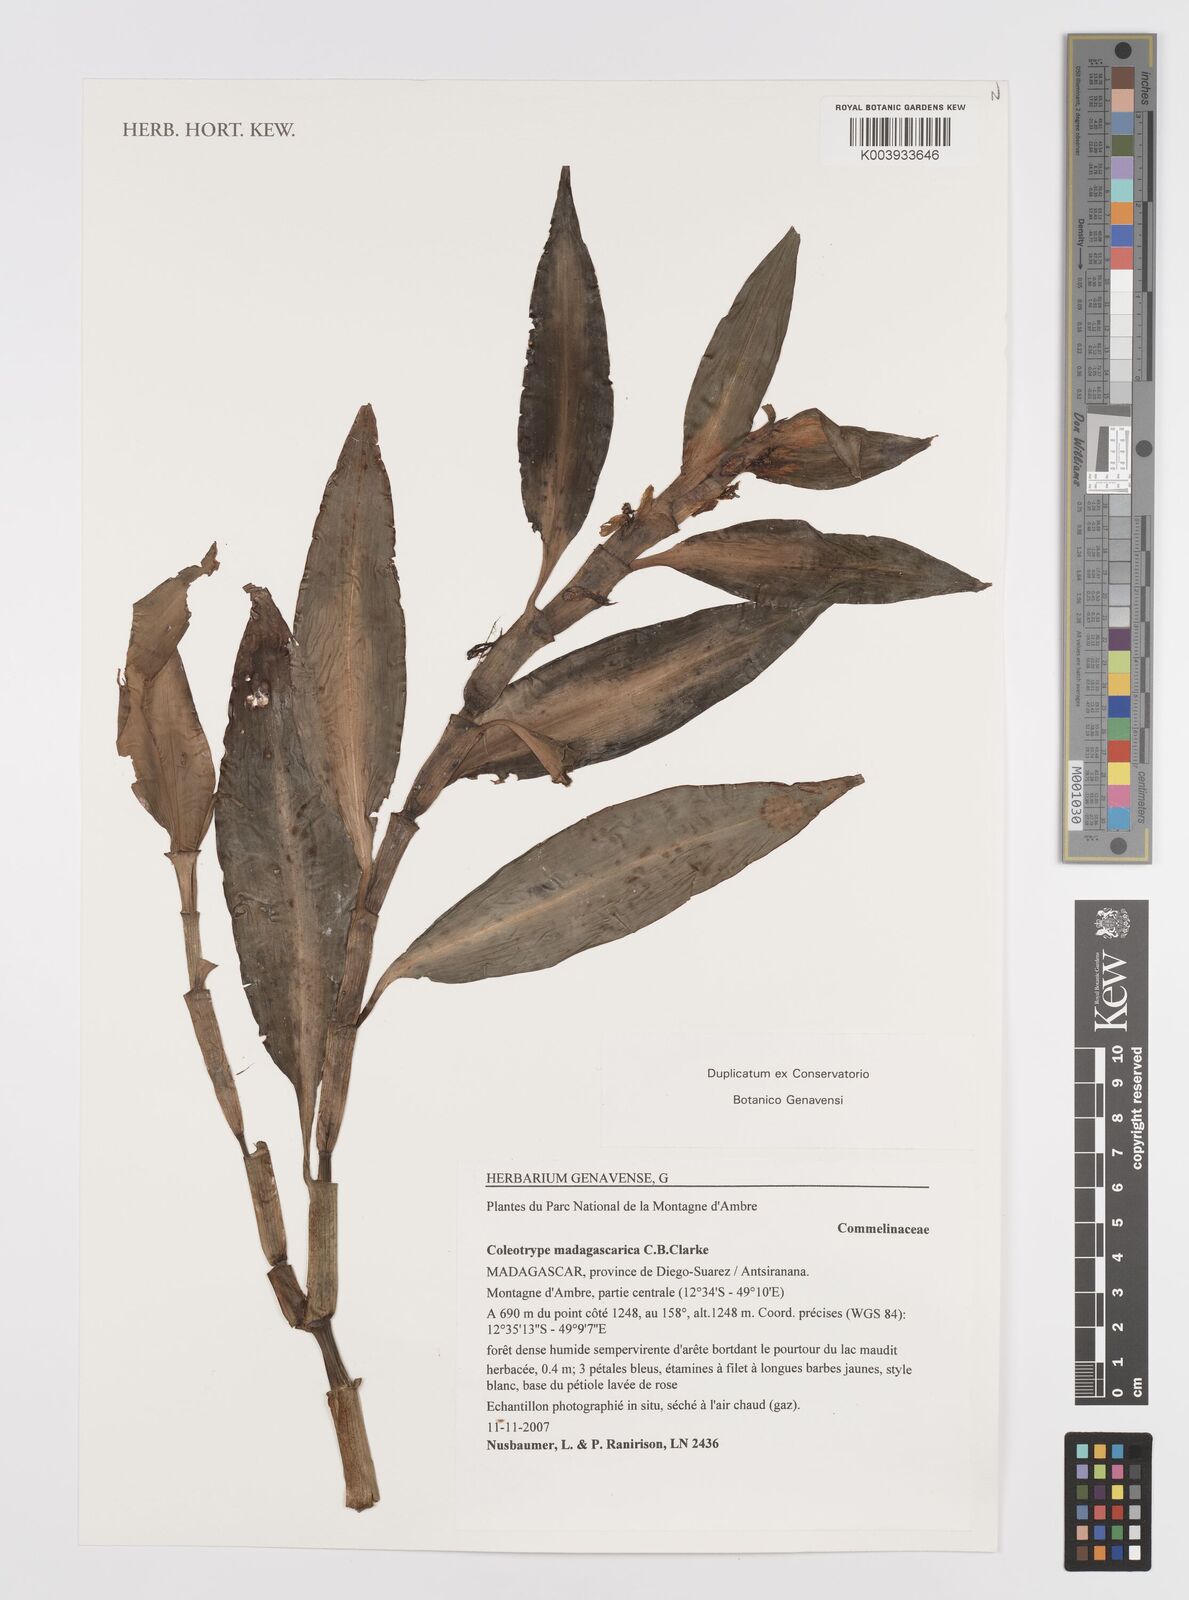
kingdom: Plantae
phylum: Tracheophyta
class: Liliopsida
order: Commelinales
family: Commelinaceae
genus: Coleotrype
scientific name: Coleotrype madagascarica
